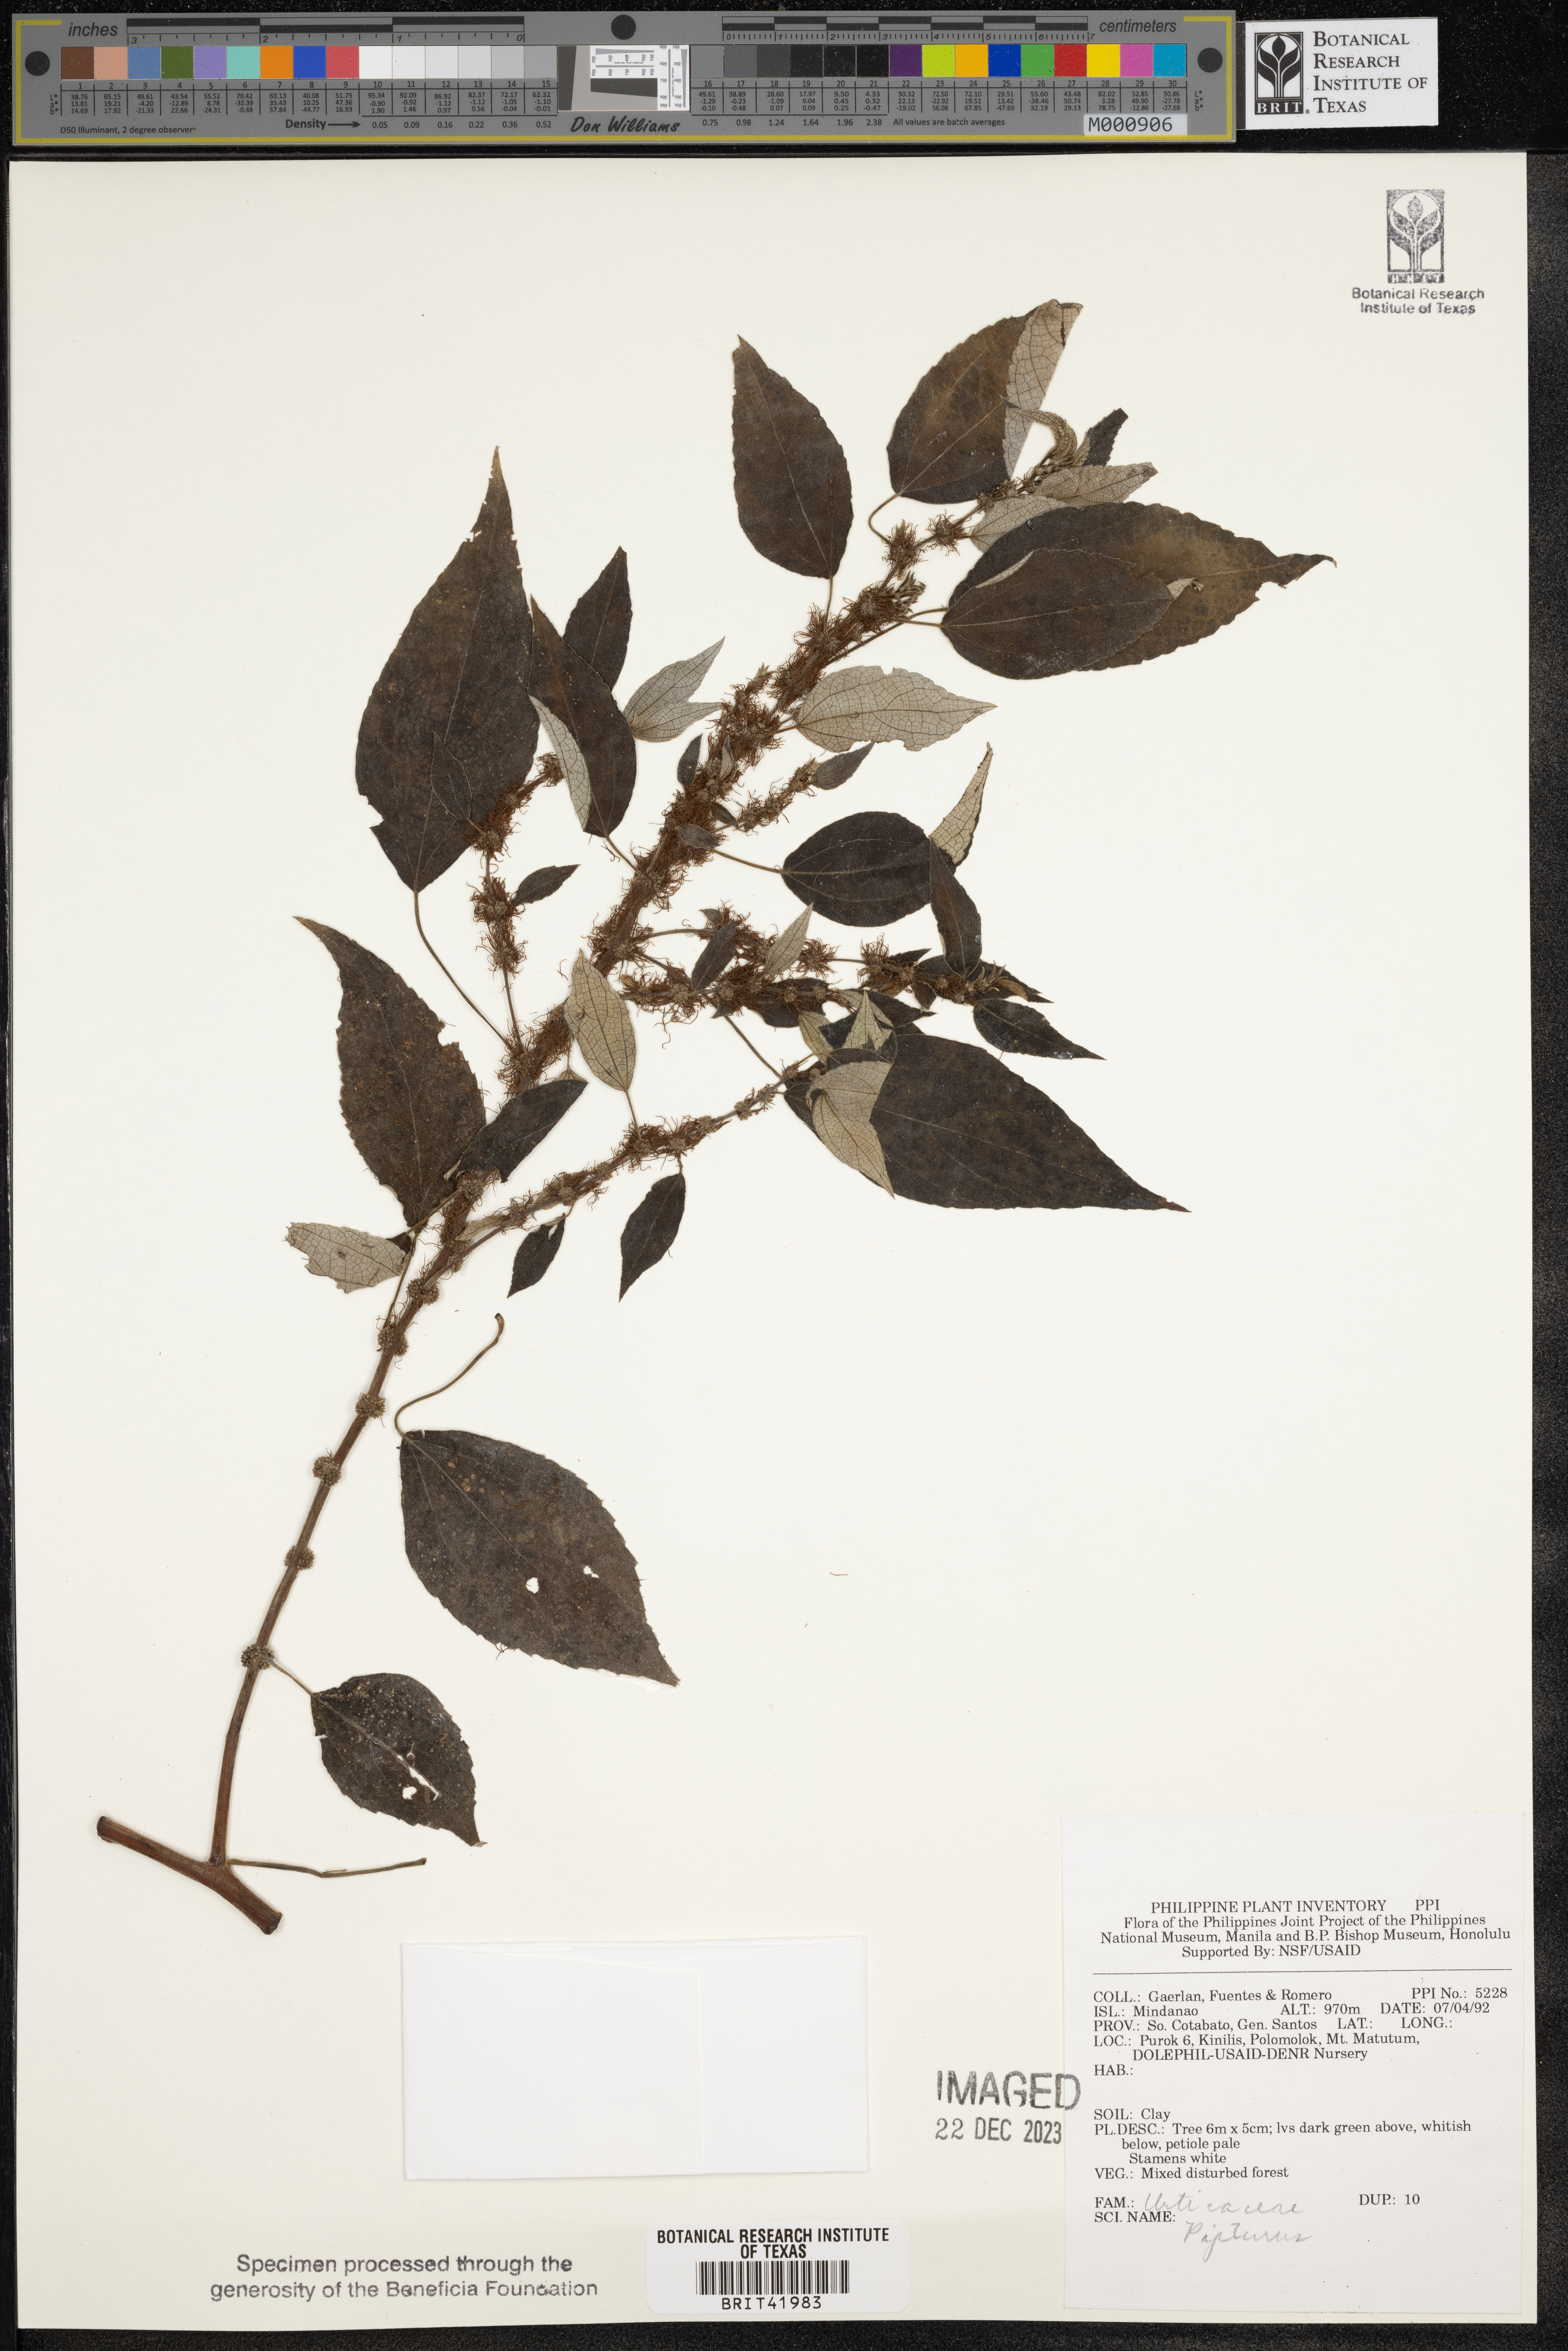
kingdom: Plantae
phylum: Tracheophyta
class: Magnoliopsida
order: Rosales
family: Urticaceae
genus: Pipturus
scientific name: Pipturus
